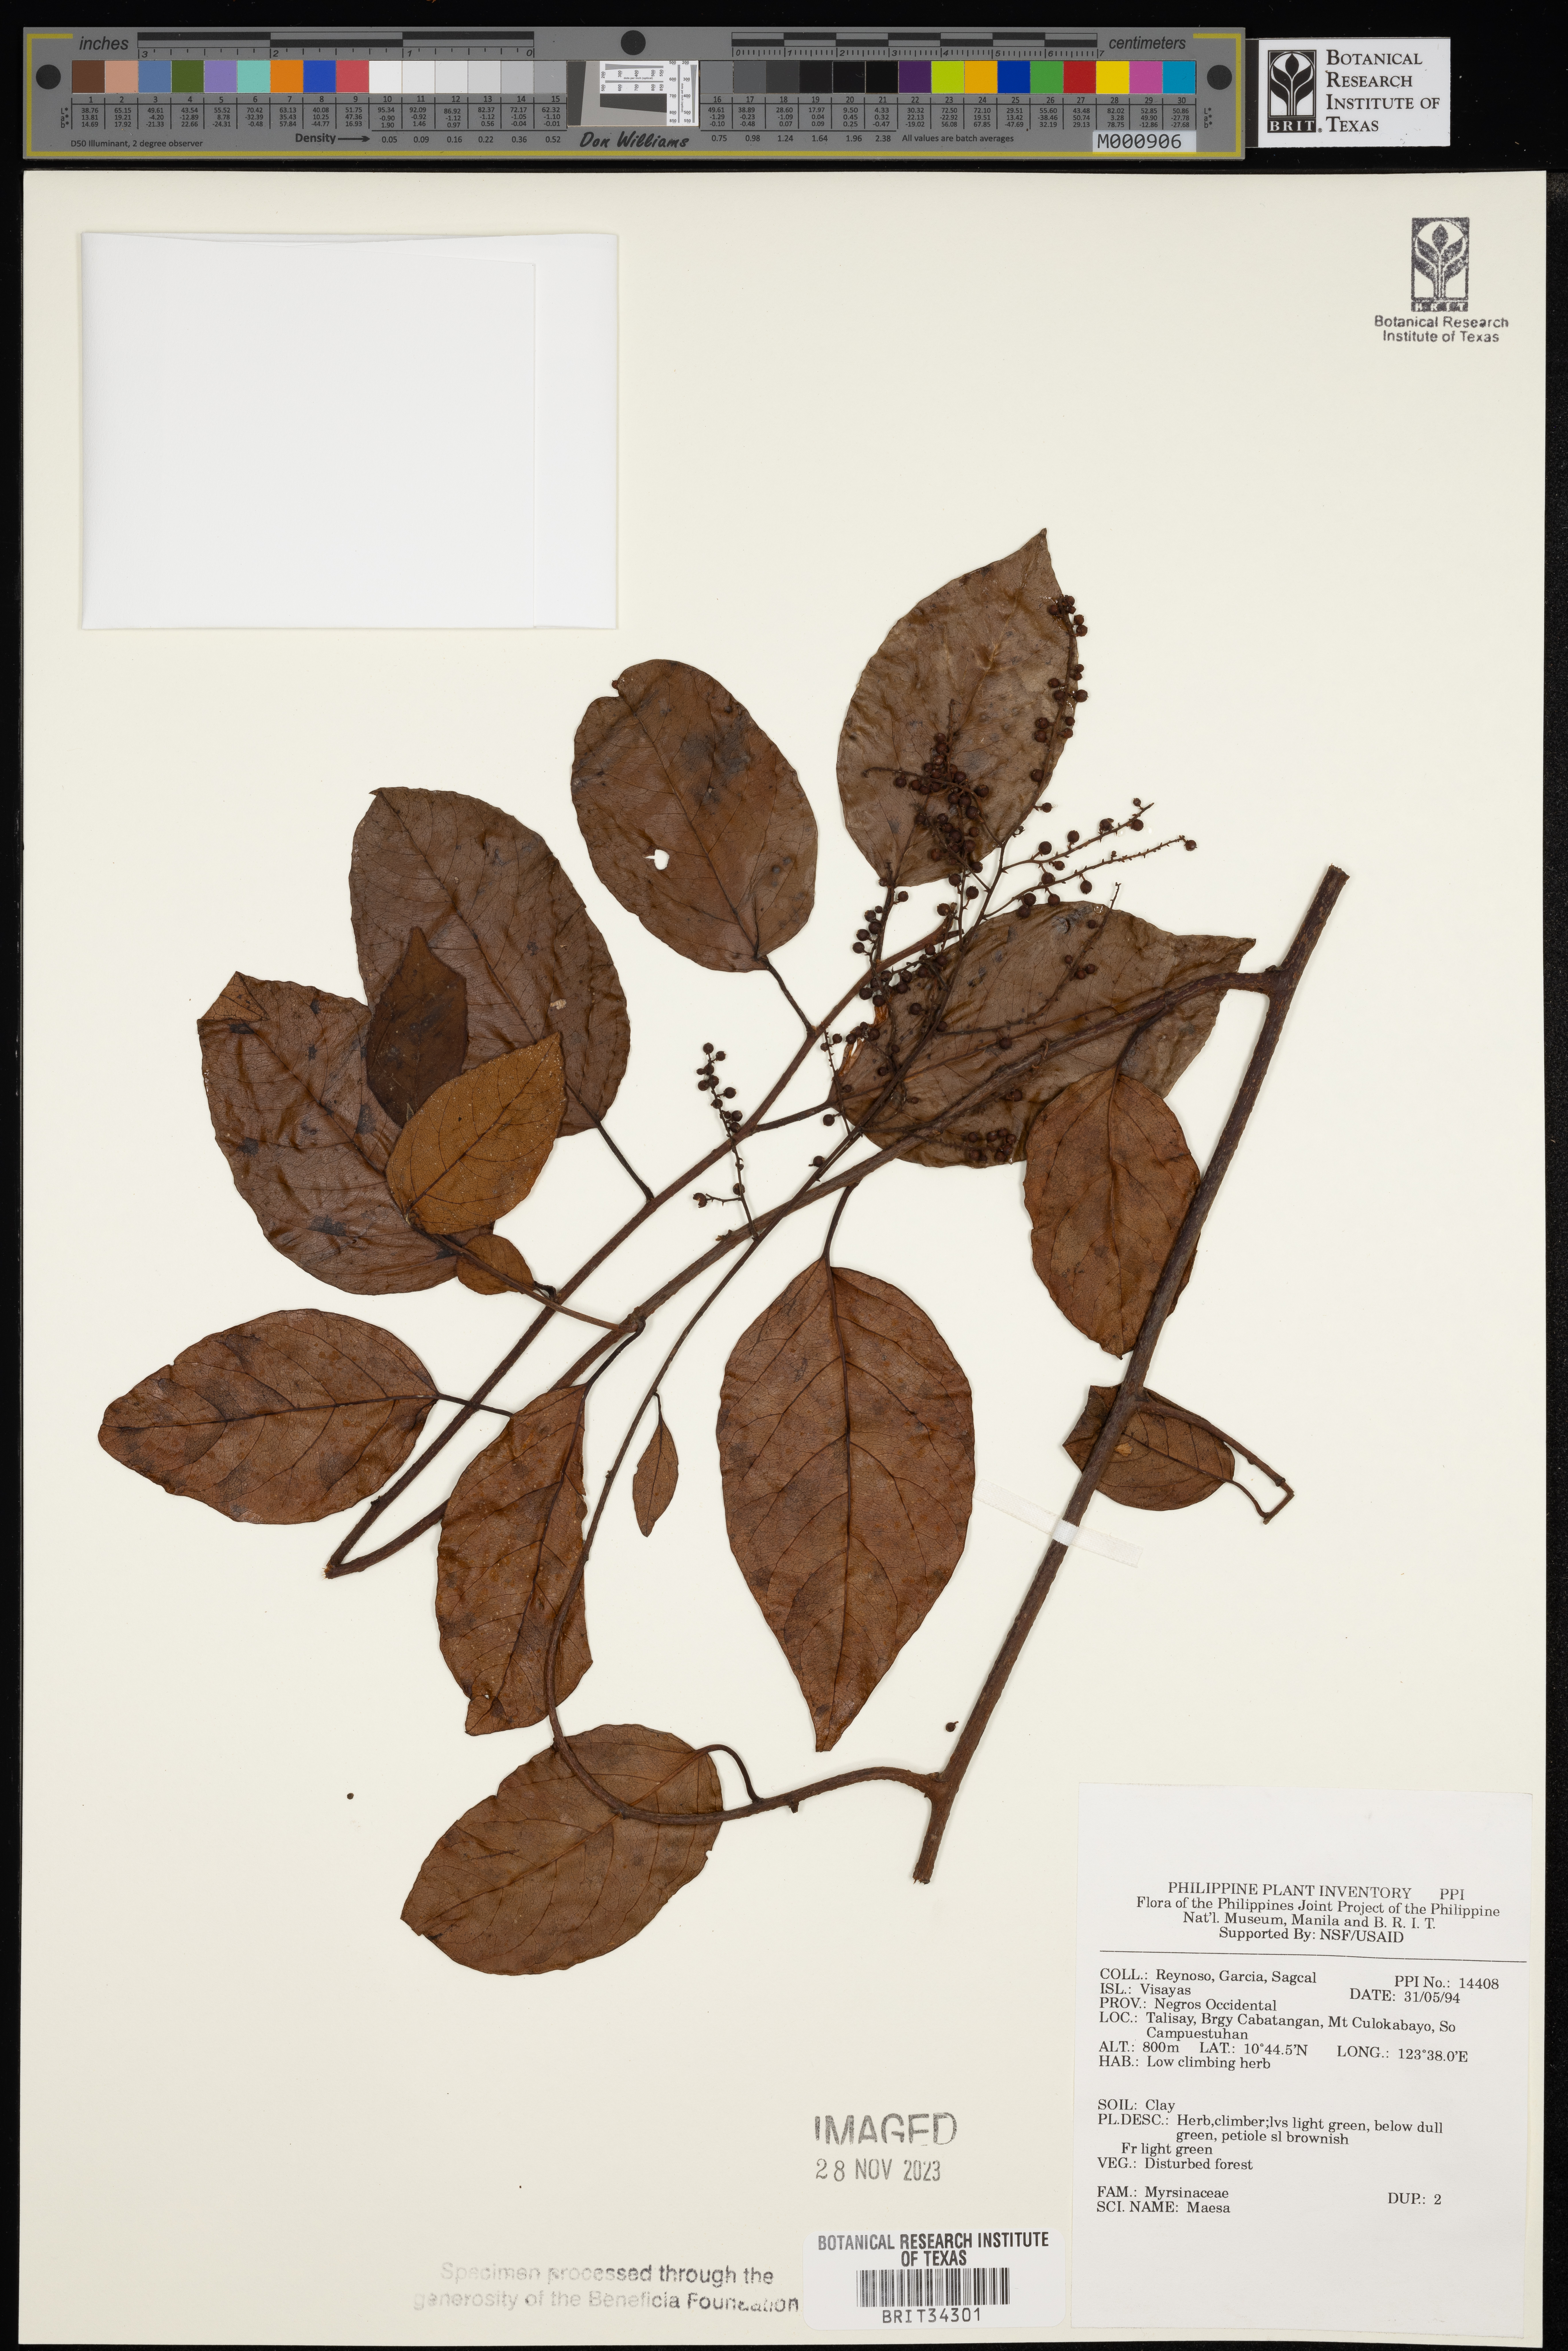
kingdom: Plantae
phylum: Tracheophyta
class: Magnoliopsida
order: Ericales
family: Primulaceae
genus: Maesa
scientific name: Maesa
